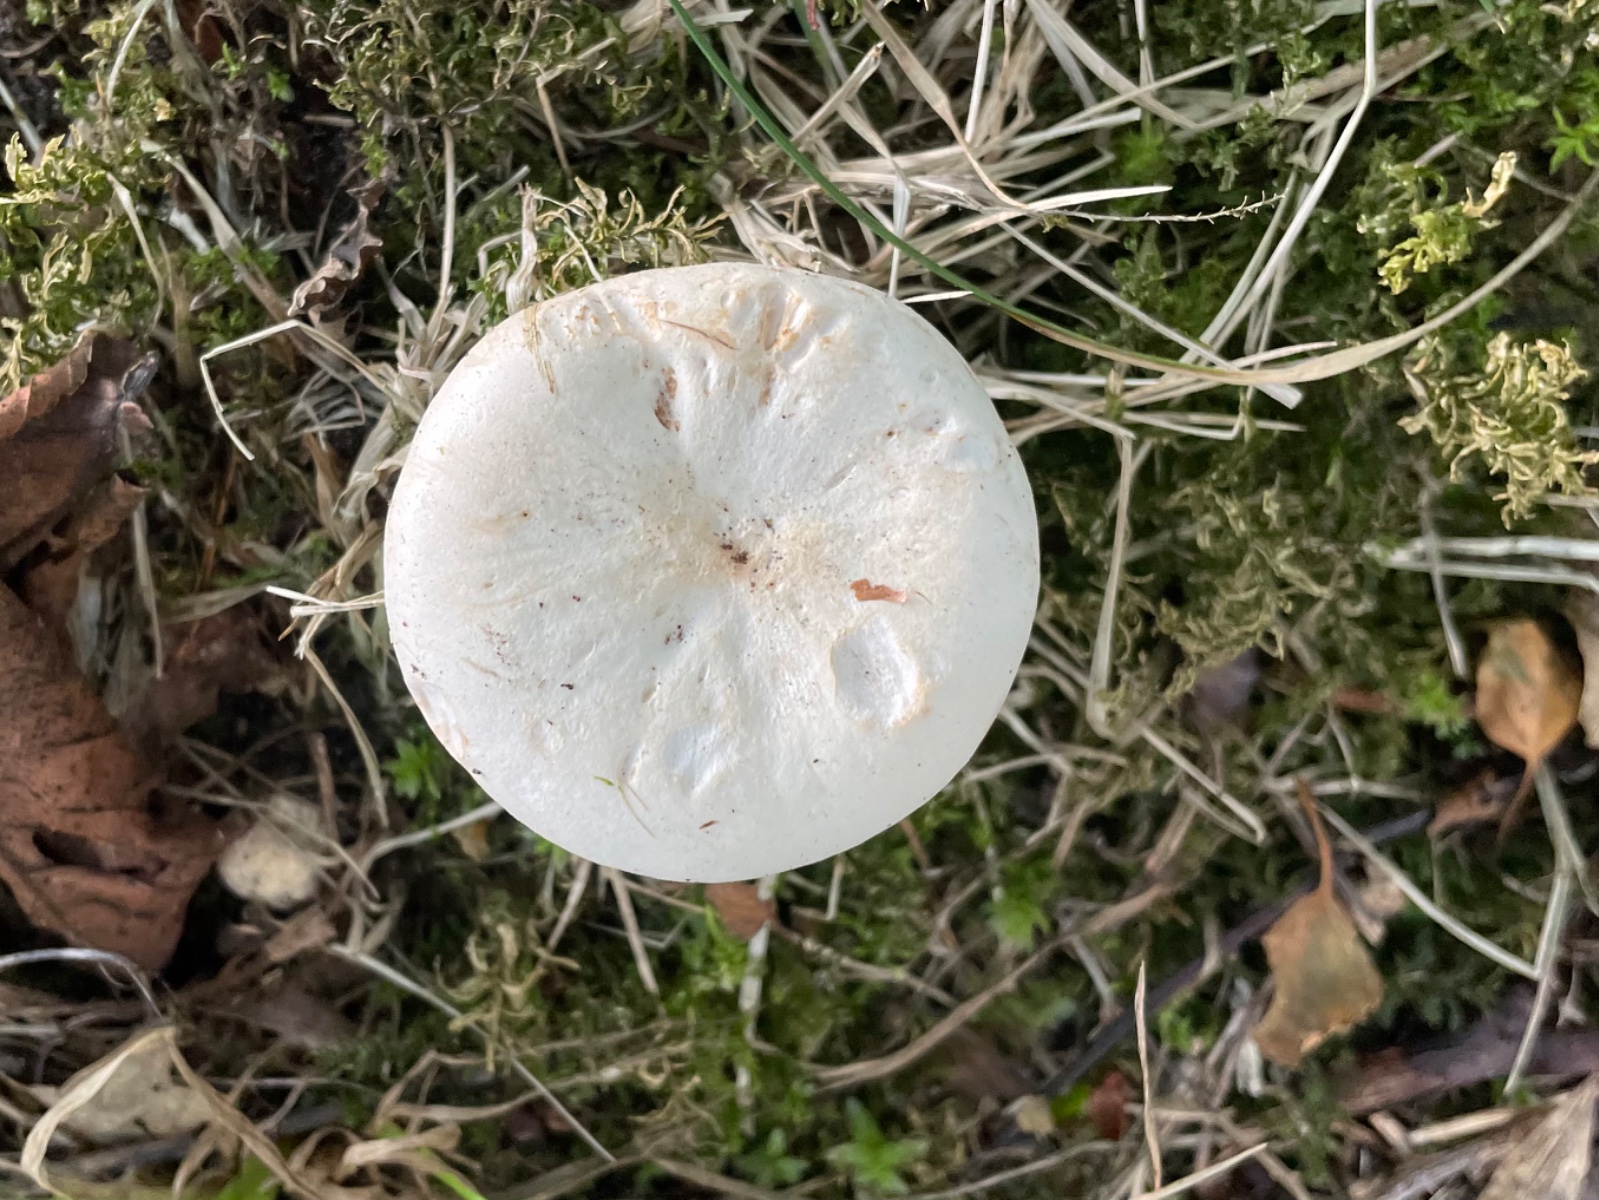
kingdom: Fungi
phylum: Basidiomycota
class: Agaricomycetes
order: Agaricales
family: Tricholomataceae
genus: Aspropaxillus
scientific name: Aspropaxillus giganteus
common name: kæmpe-tragtridderhat
